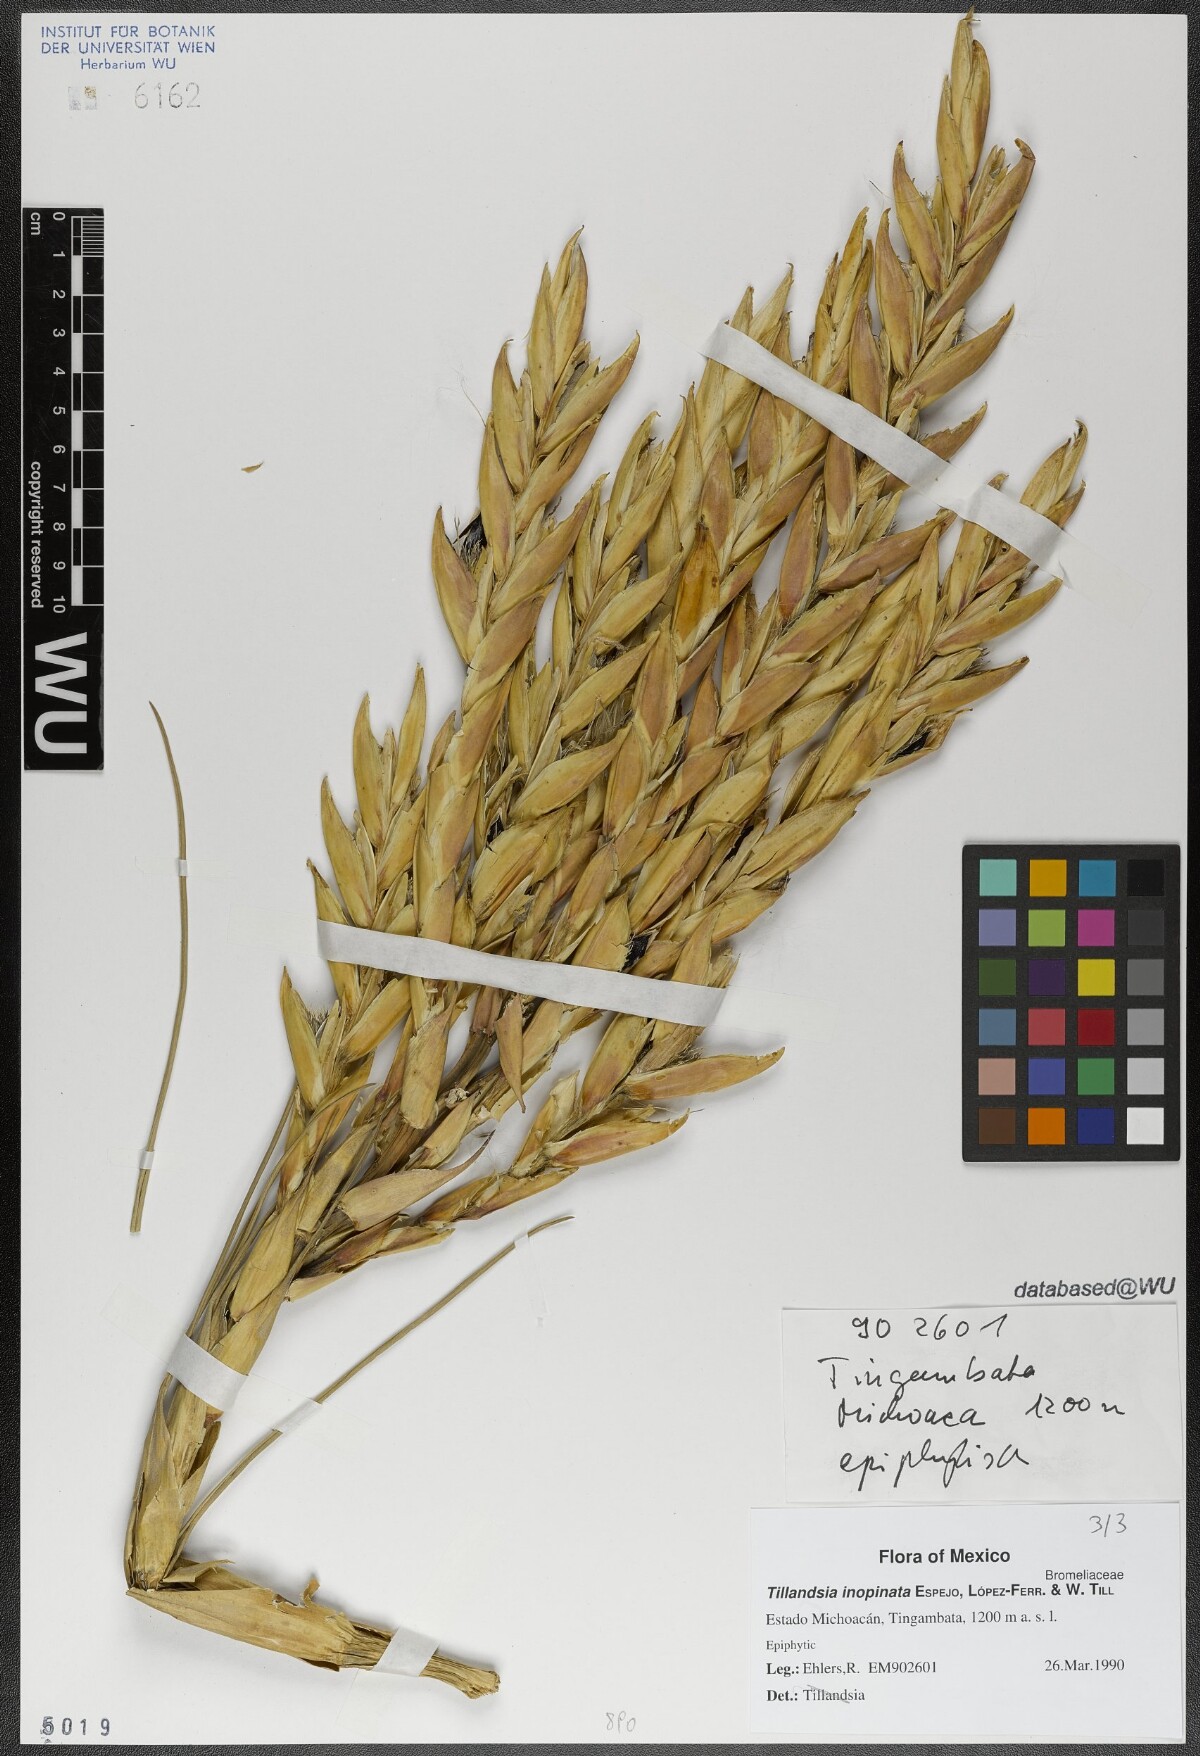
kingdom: Plantae
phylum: Tracheophyta
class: Liliopsida
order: Poales
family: Bromeliaceae
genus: Tillandsia
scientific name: Tillandsia inopinata
